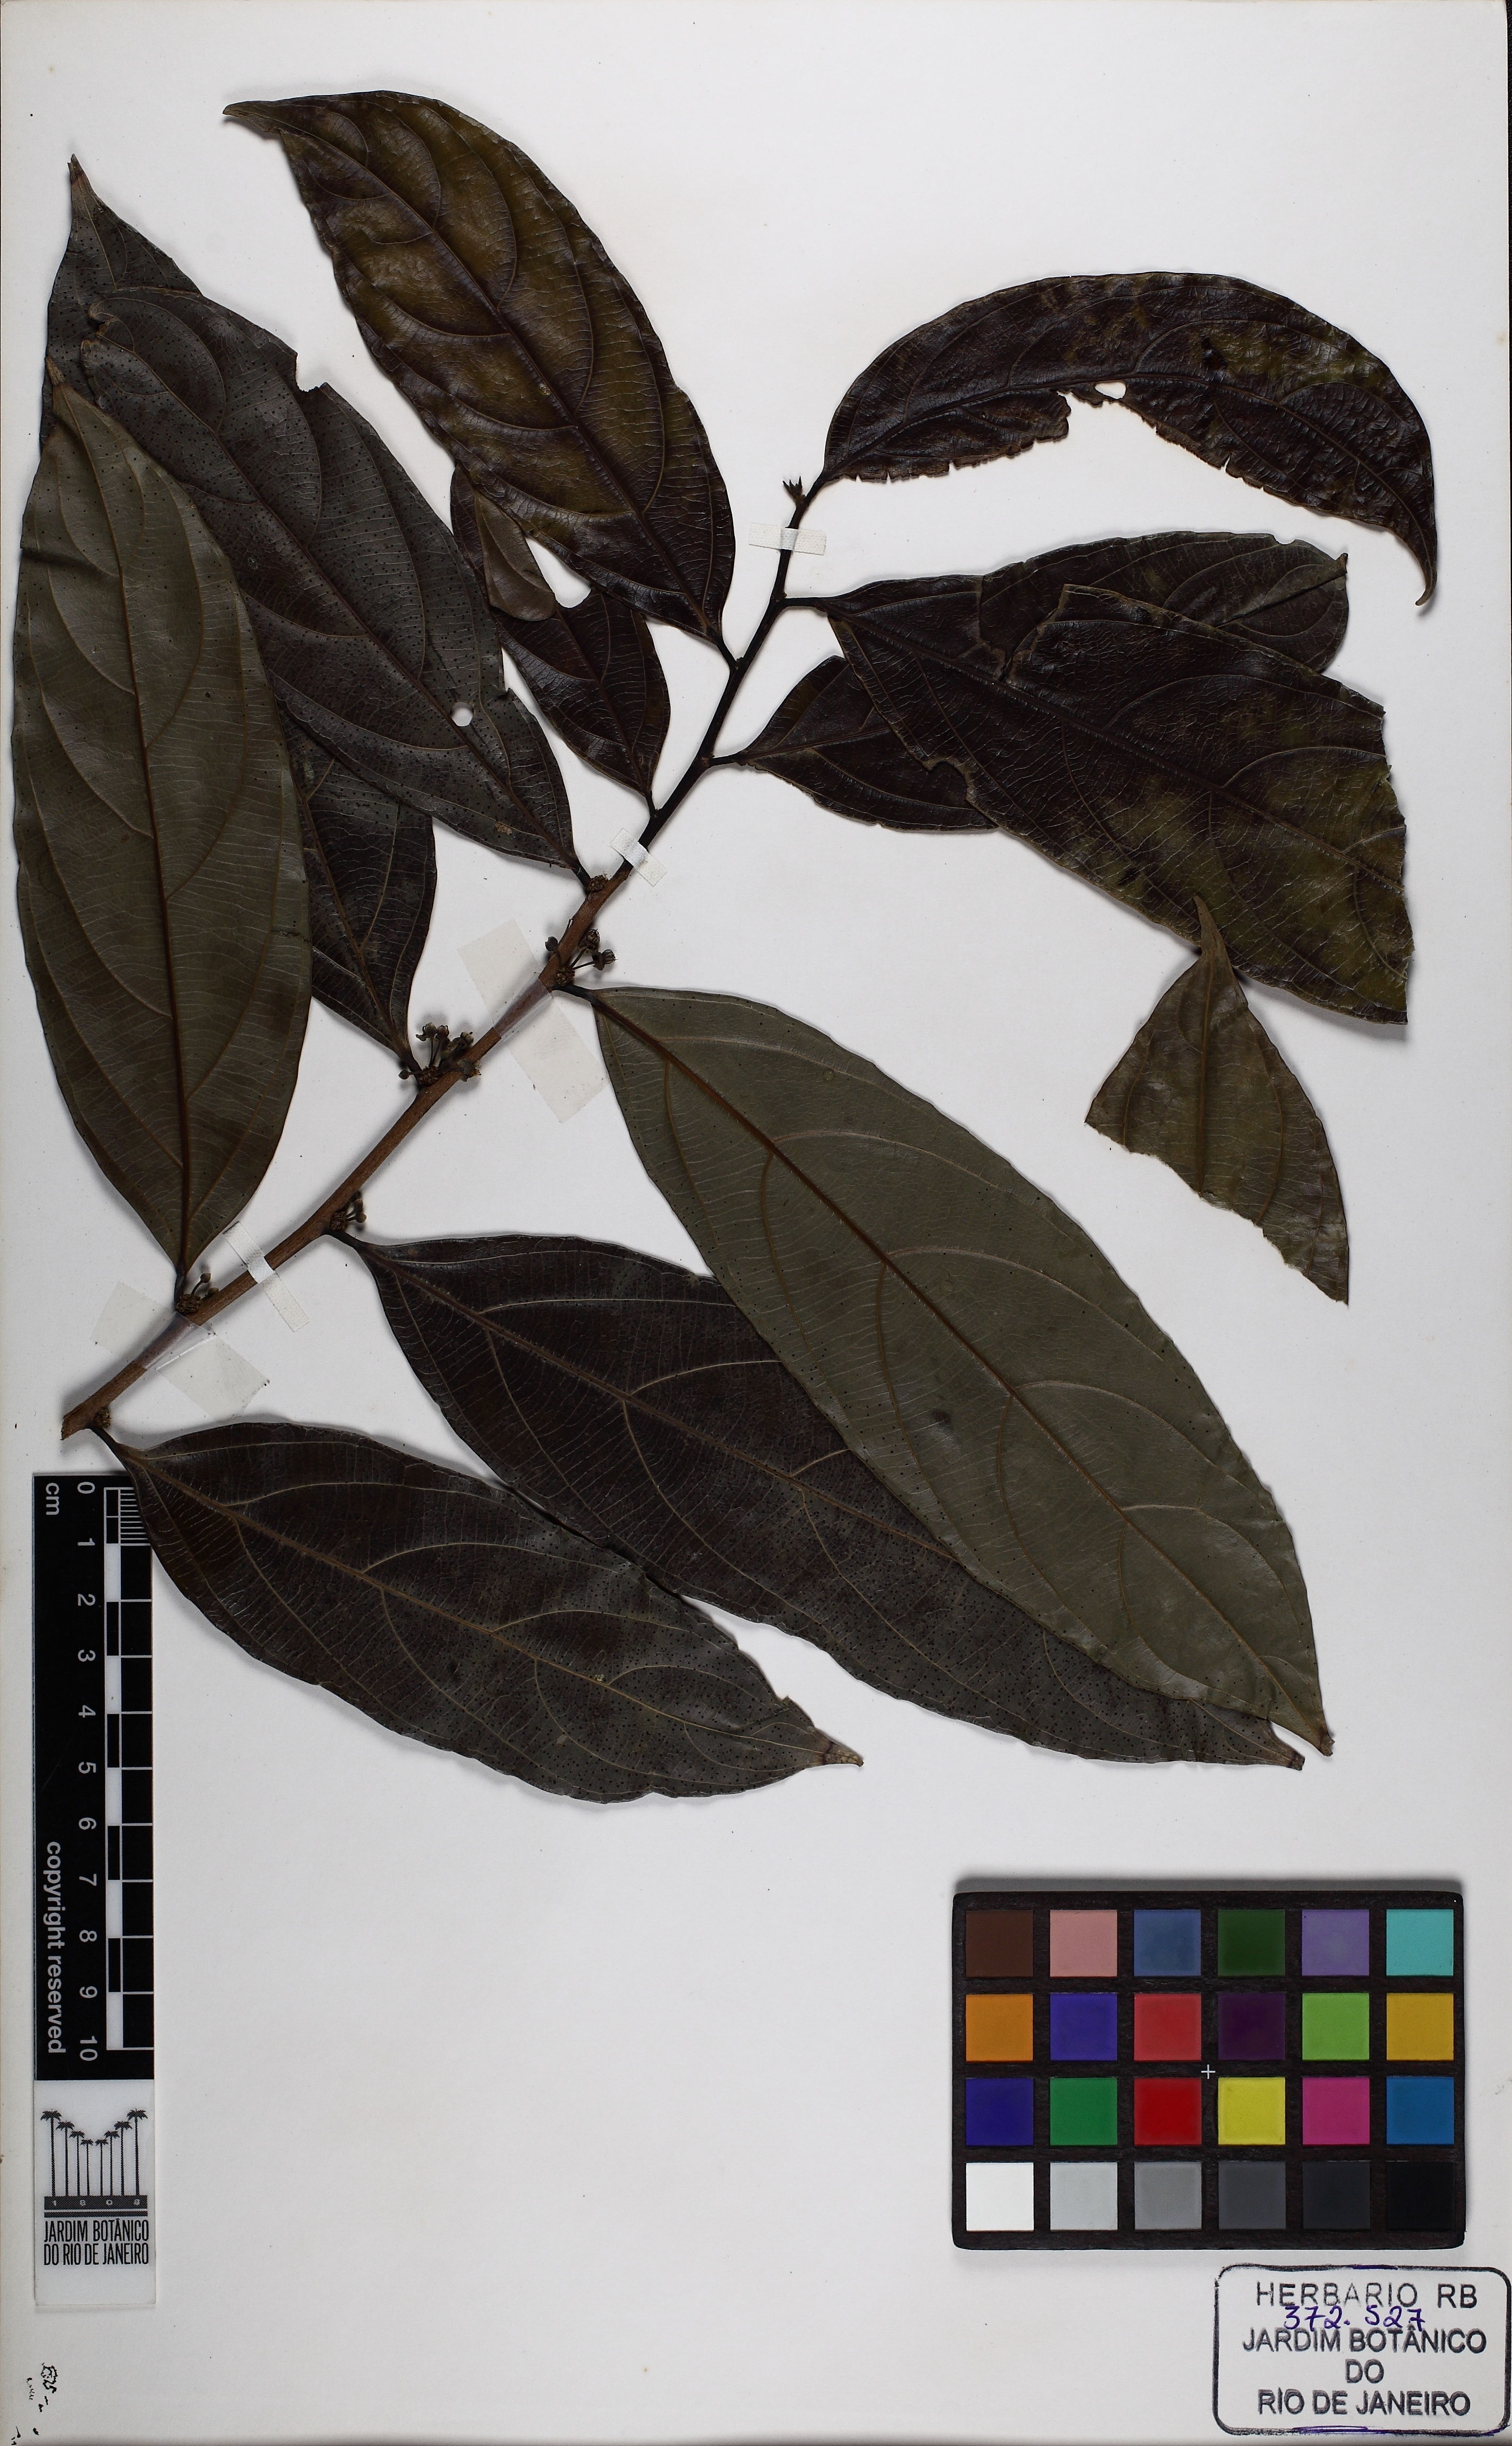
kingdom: Plantae
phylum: Tracheophyta
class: Magnoliopsida
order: Malpighiales
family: Salicaceae
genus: Piparea
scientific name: Piparea multiflora
